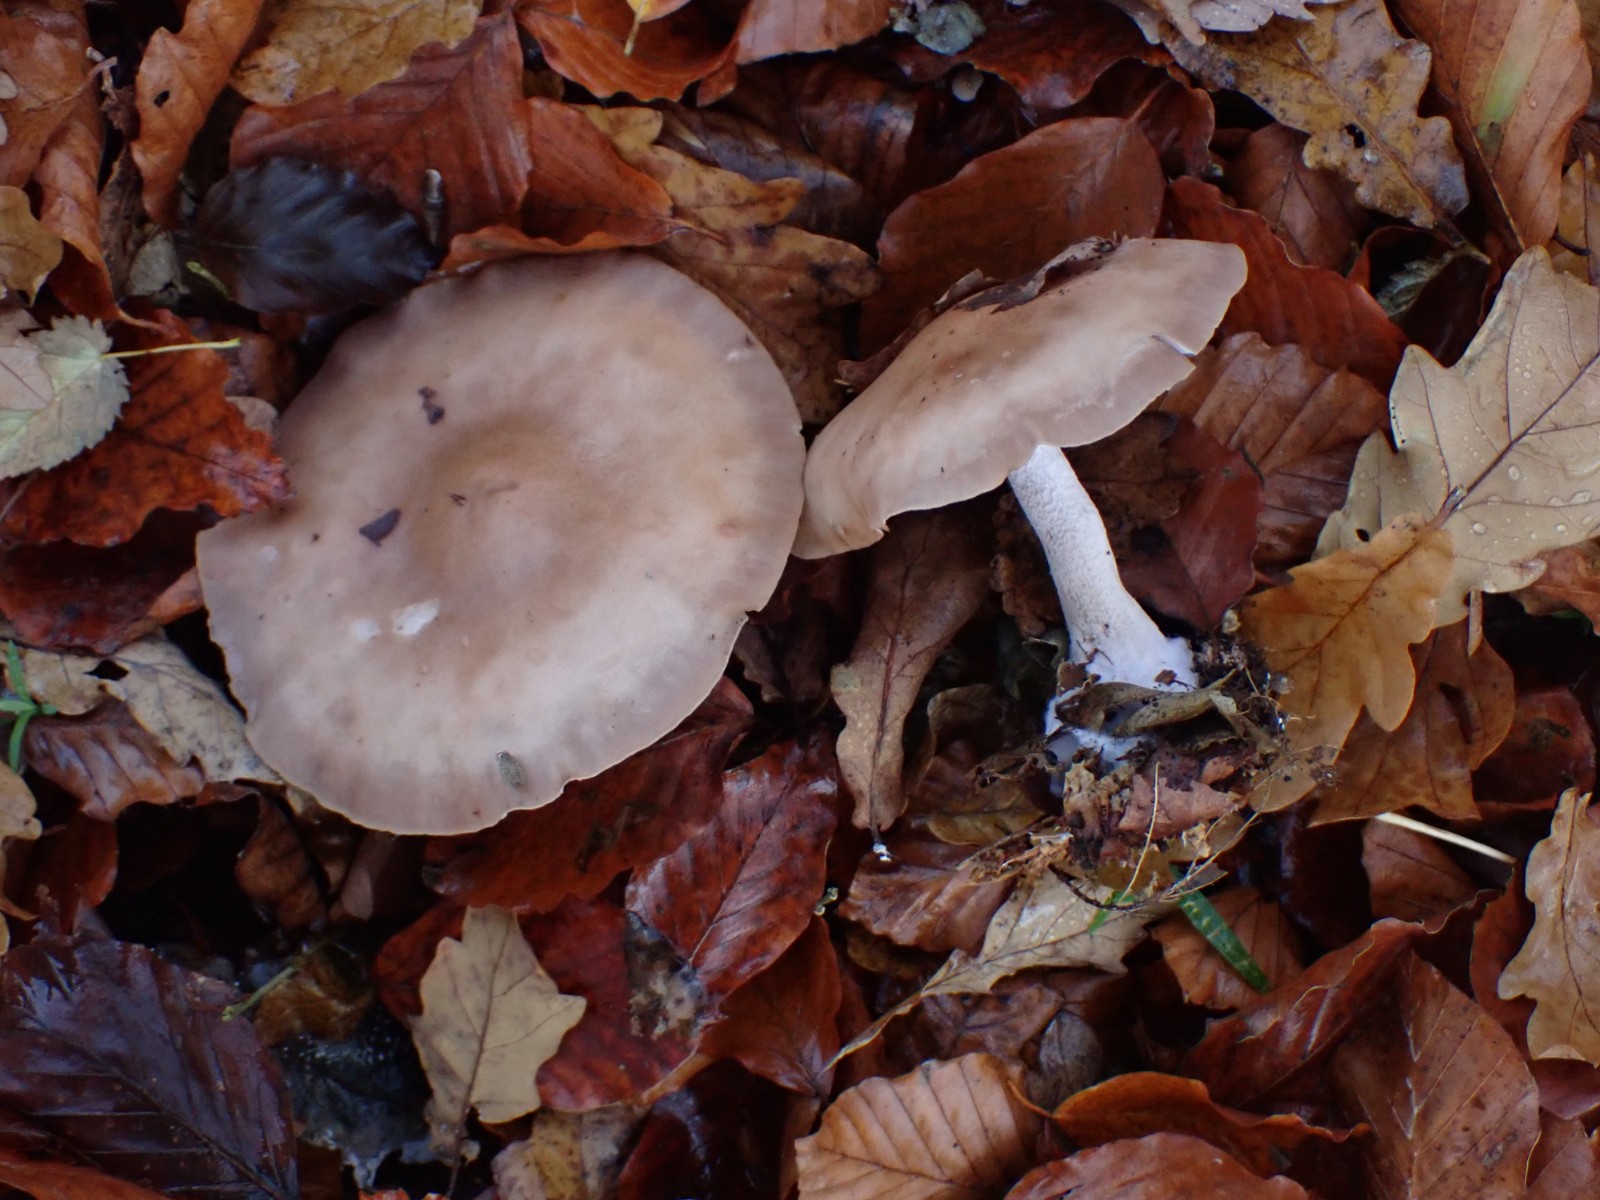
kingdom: Fungi
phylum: Basidiomycota
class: Agaricomycetes
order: Agaricales
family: Tricholomataceae
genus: Lepista
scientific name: Lepista nuda
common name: violet hekseringshat
